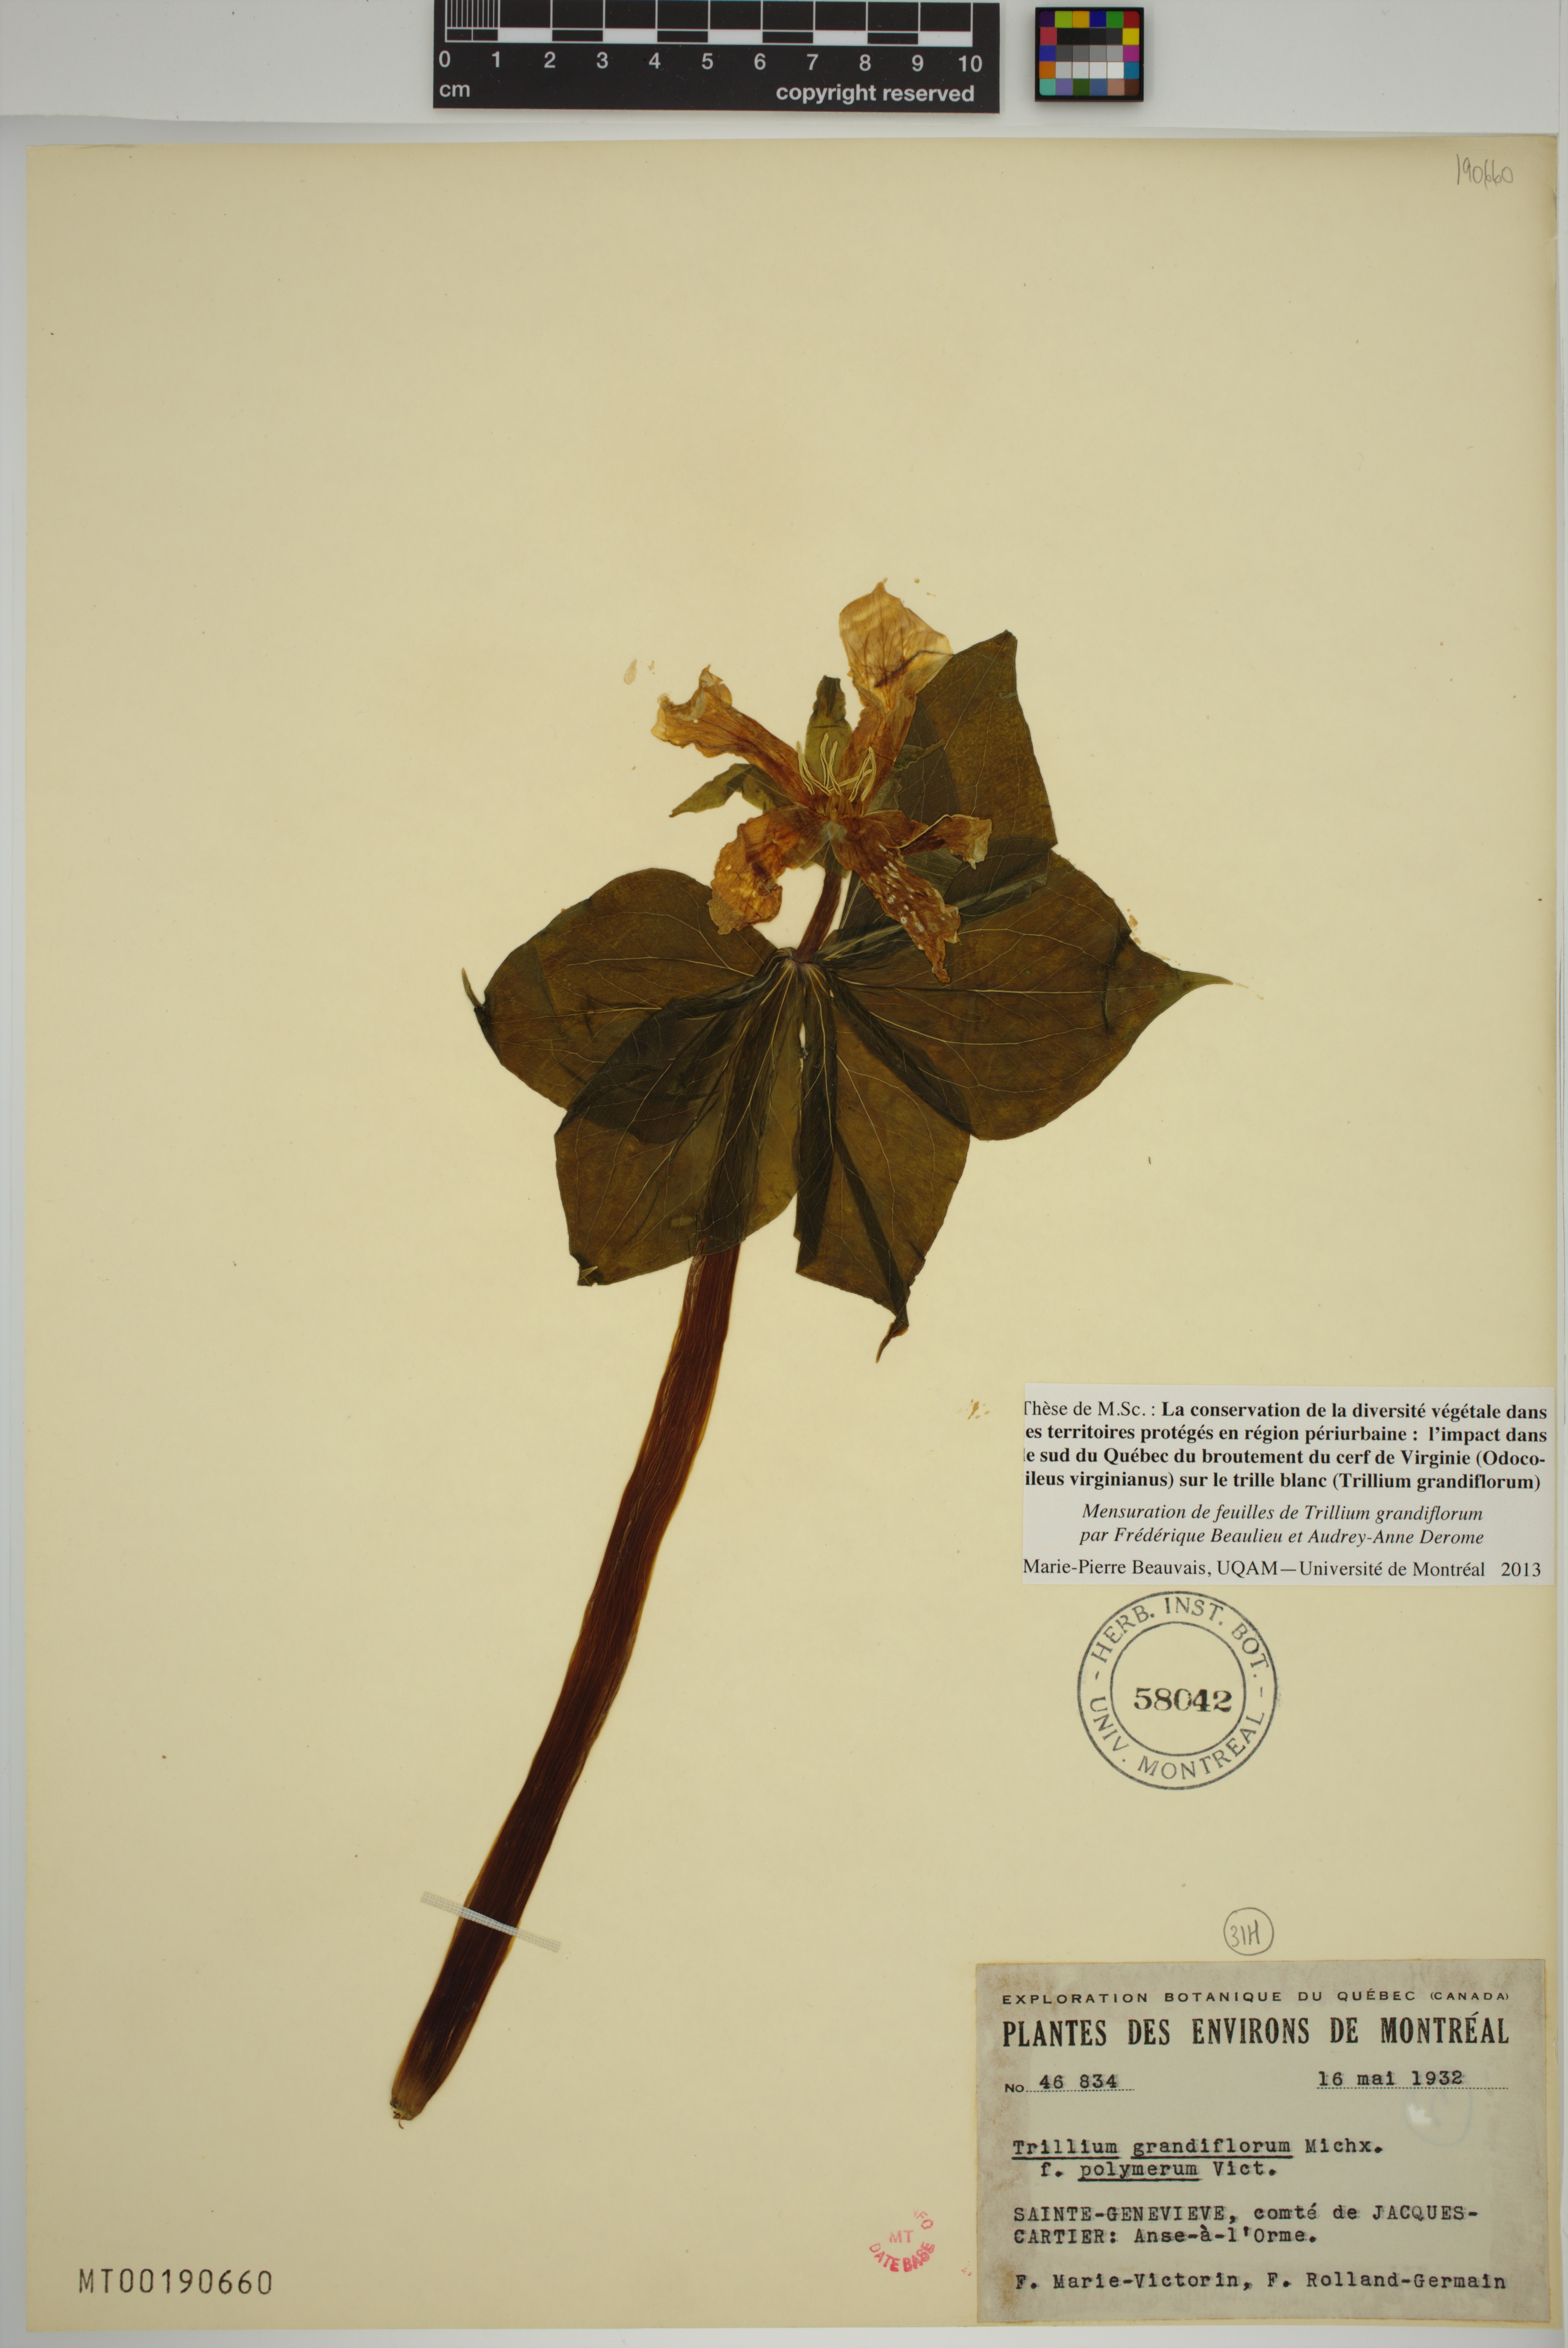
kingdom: Plantae
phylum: Tracheophyta
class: Liliopsida
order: Liliales
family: Melanthiaceae
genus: Trillium
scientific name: Trillium grandiflorum
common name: Great white trillium
